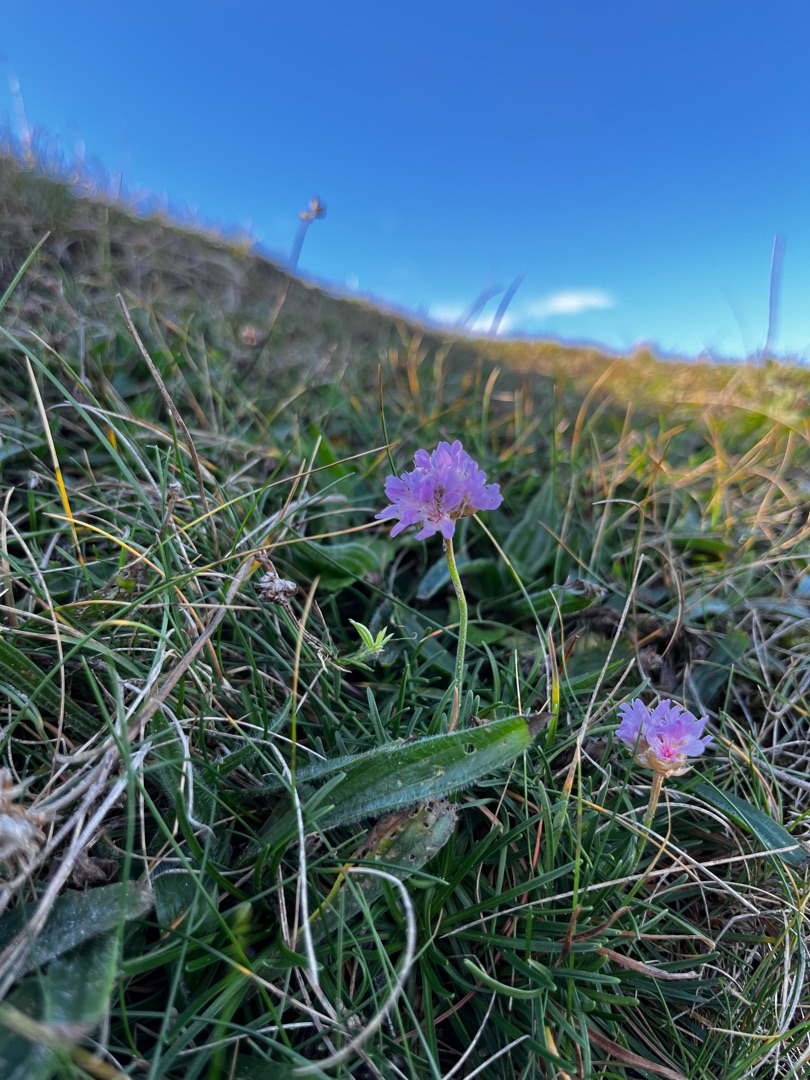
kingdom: Plantae
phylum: Tracheophyta
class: Magnoliopsida
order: Caryophyllales
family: Plumbaginaceae
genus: Armeria
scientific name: Armeria maritima
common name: Engelskgræs
